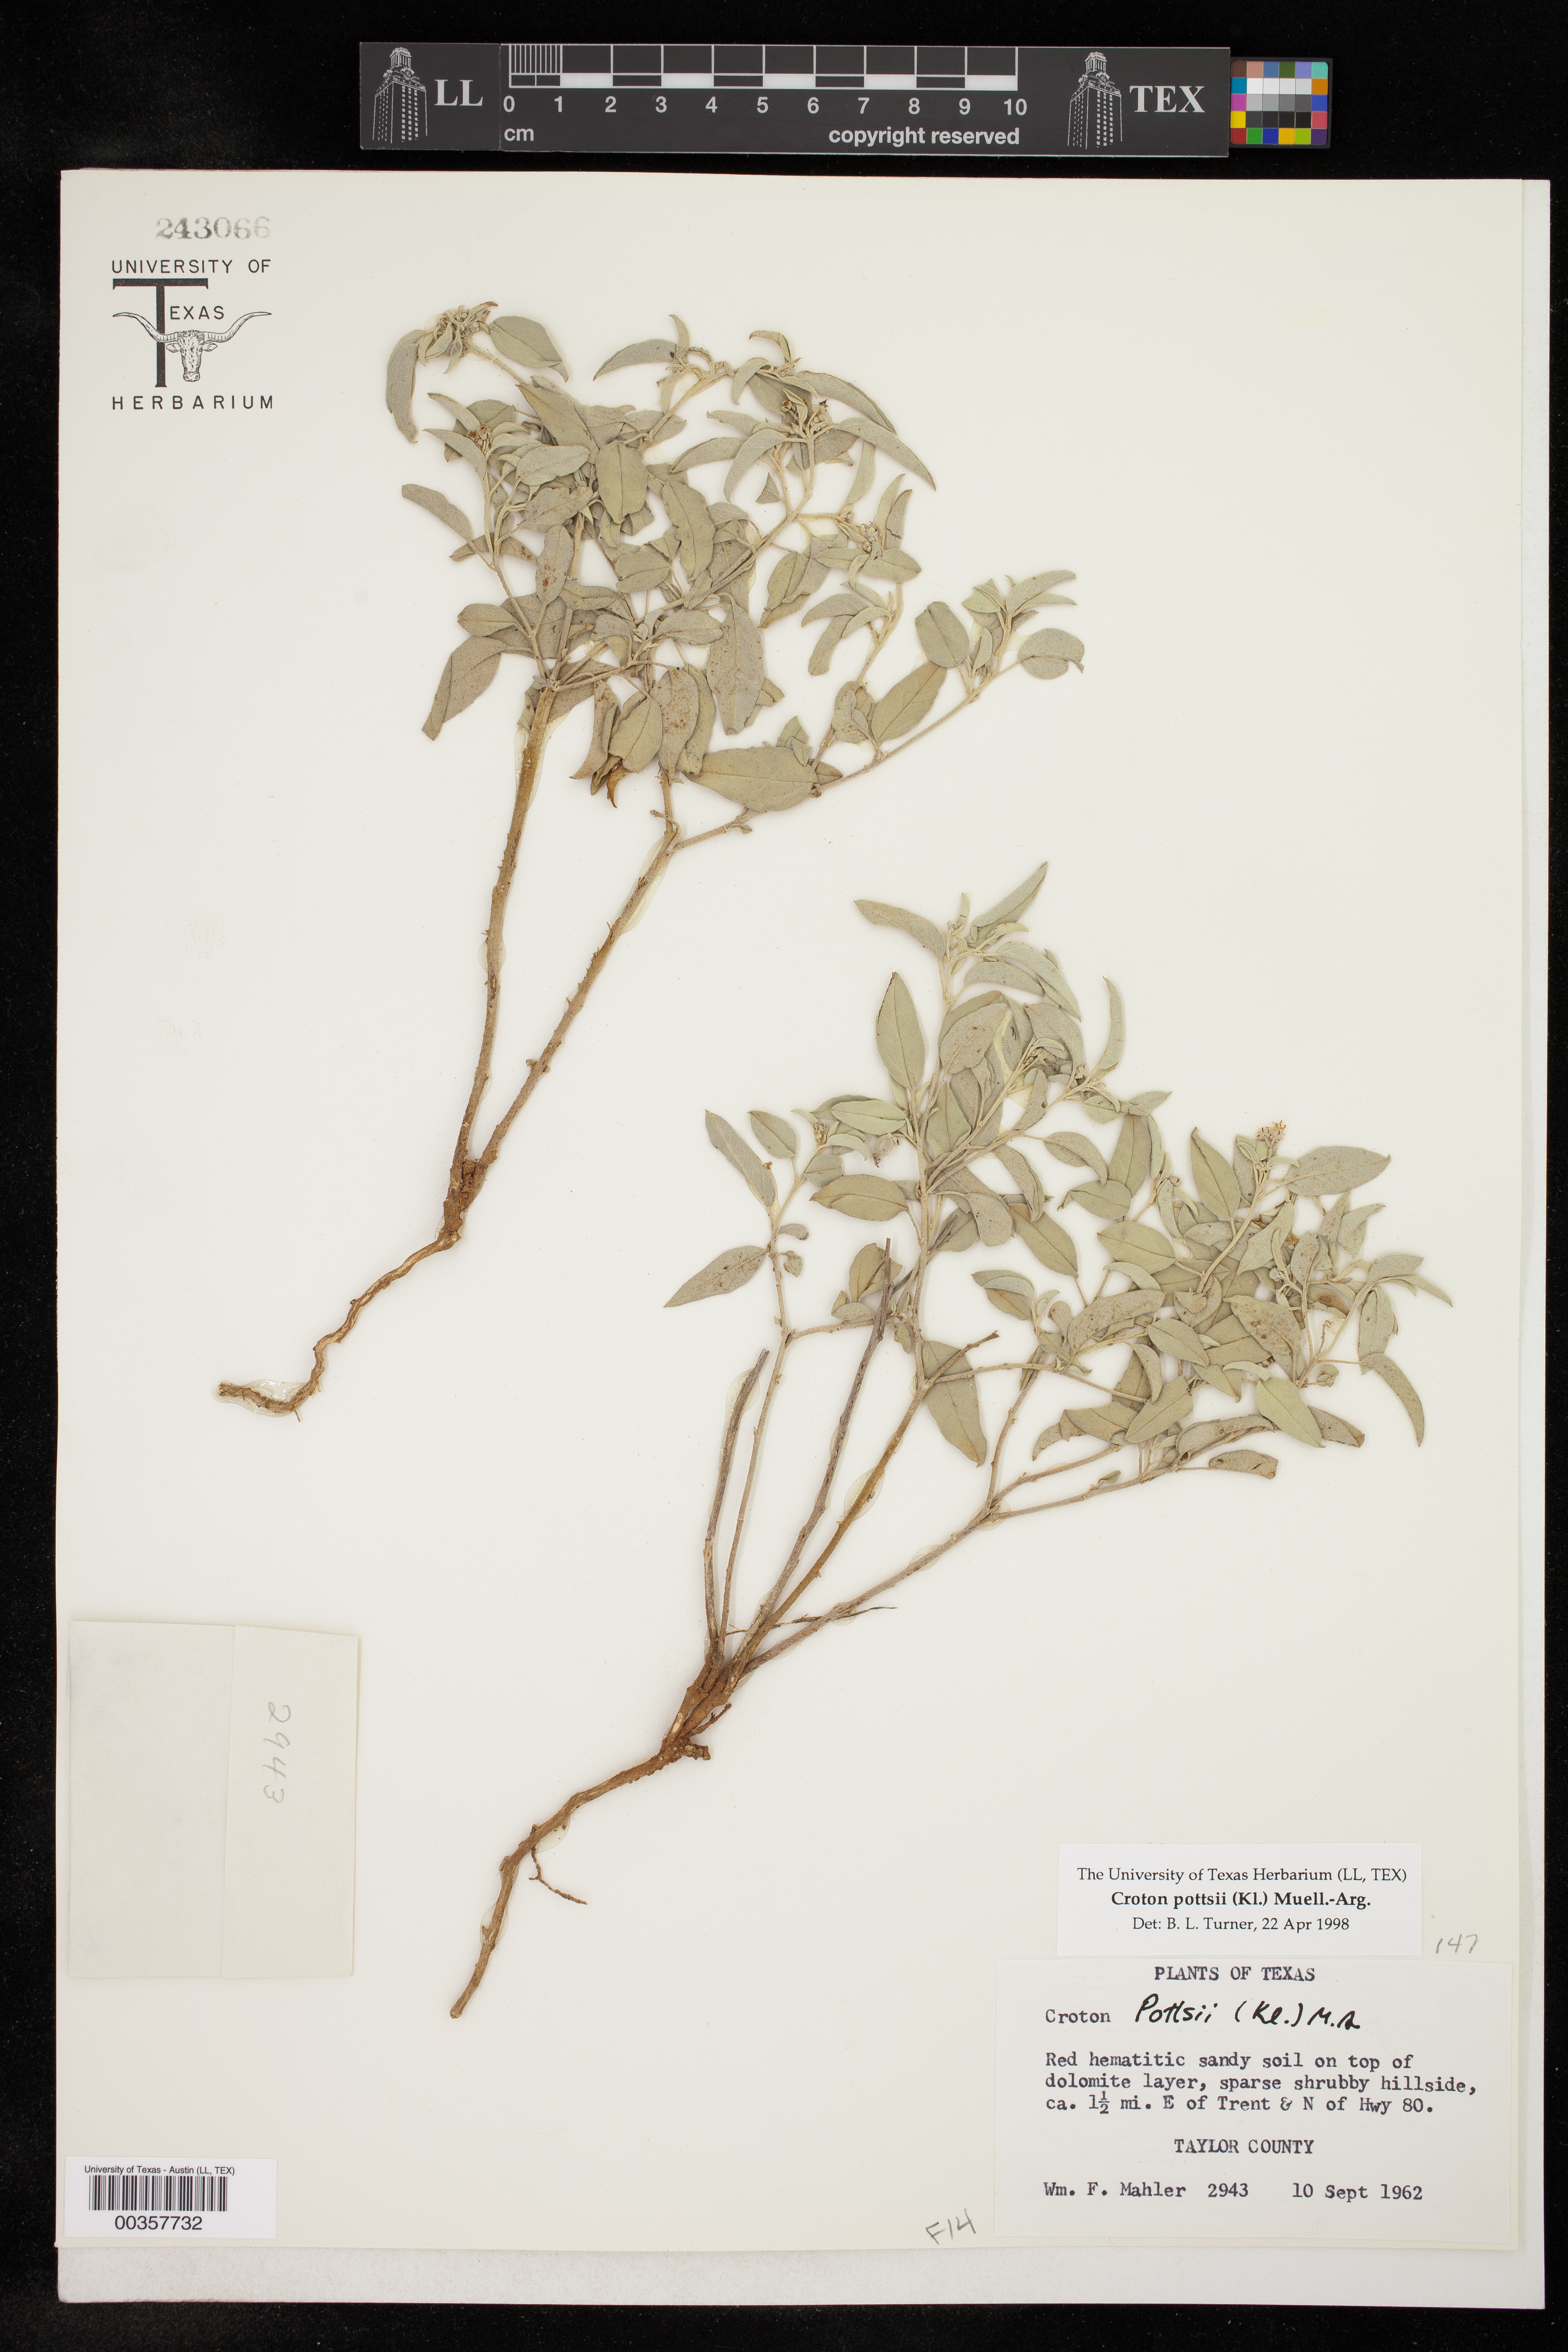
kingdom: Plantae
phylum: Tracheophyta
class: Magnoliopsida
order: Malpighiales
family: Euphorbiaceae
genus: Croton
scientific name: Croton pottsii
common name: Leatherweed
